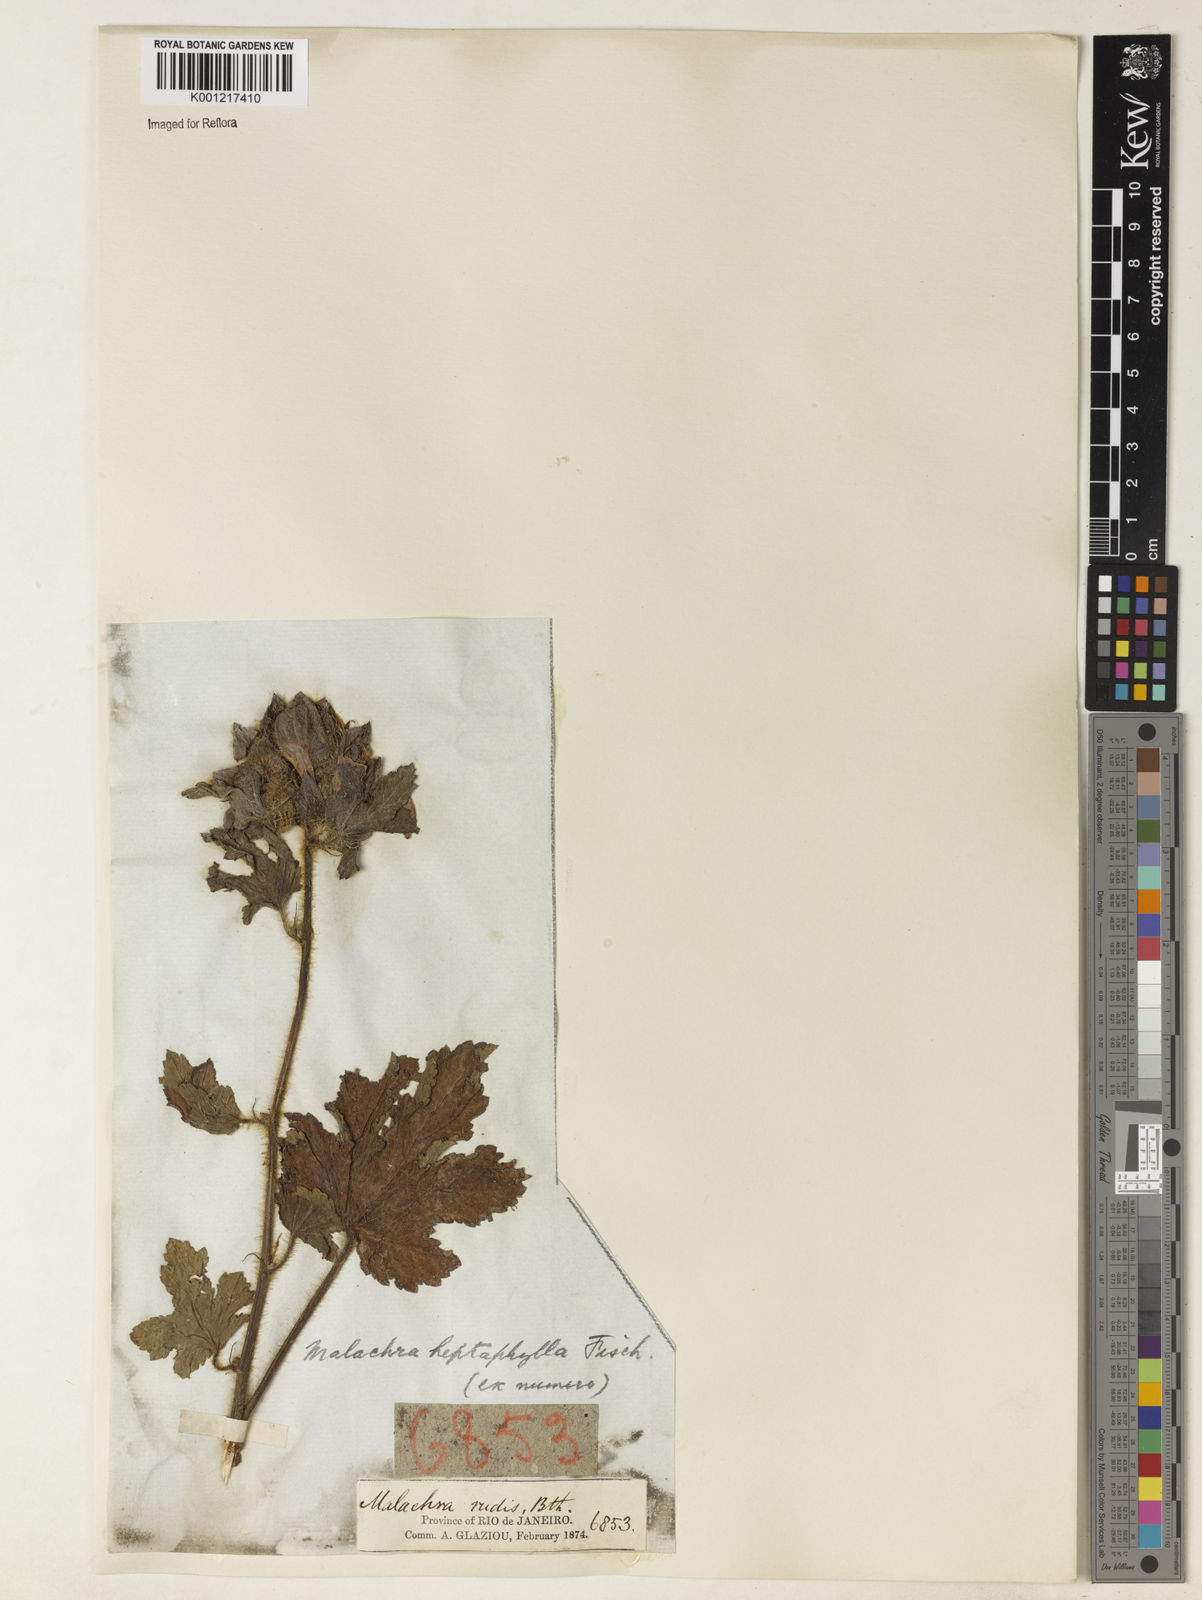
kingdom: Plantae
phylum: Tracheophyta
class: Magnoliopsida
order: Malvales
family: Malvaceae
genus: Malachra
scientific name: Malachra capitata
